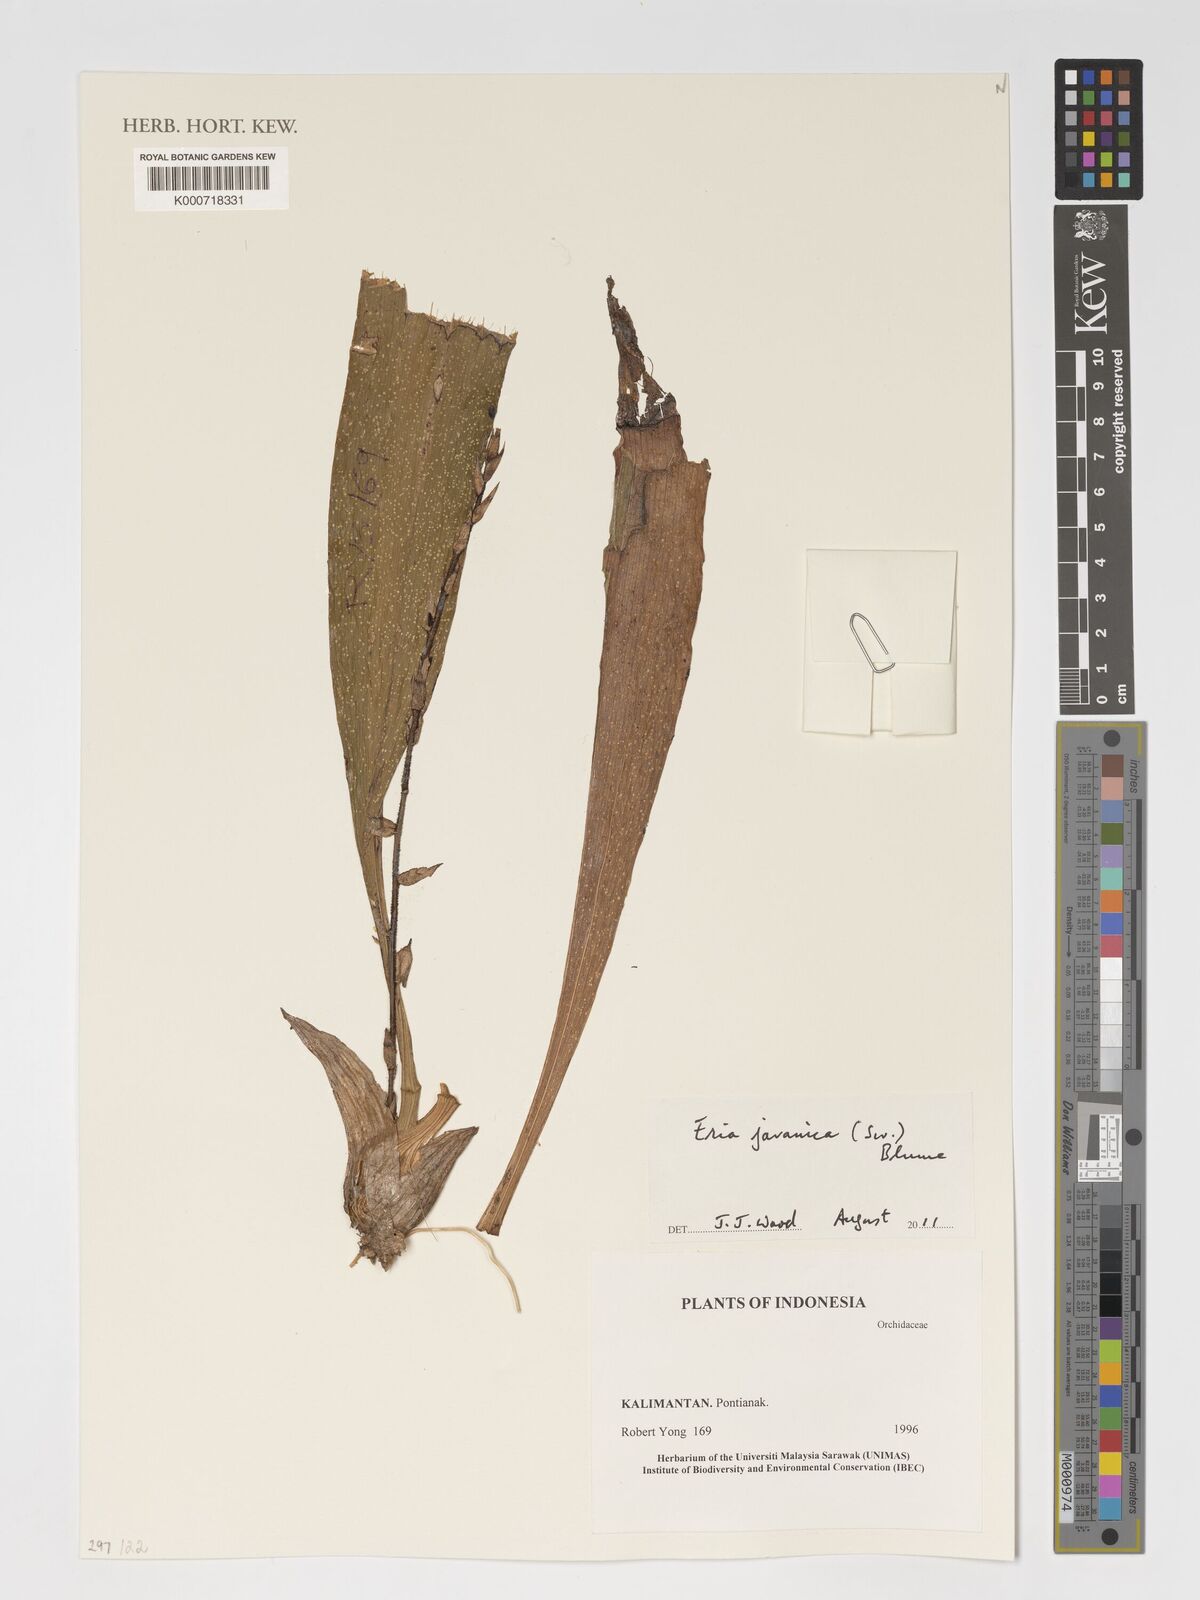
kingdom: Plantae
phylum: Tracheophyta
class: Liliopsida
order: Asparagales
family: Orchidaceae
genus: Eria
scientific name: Eria javanica
